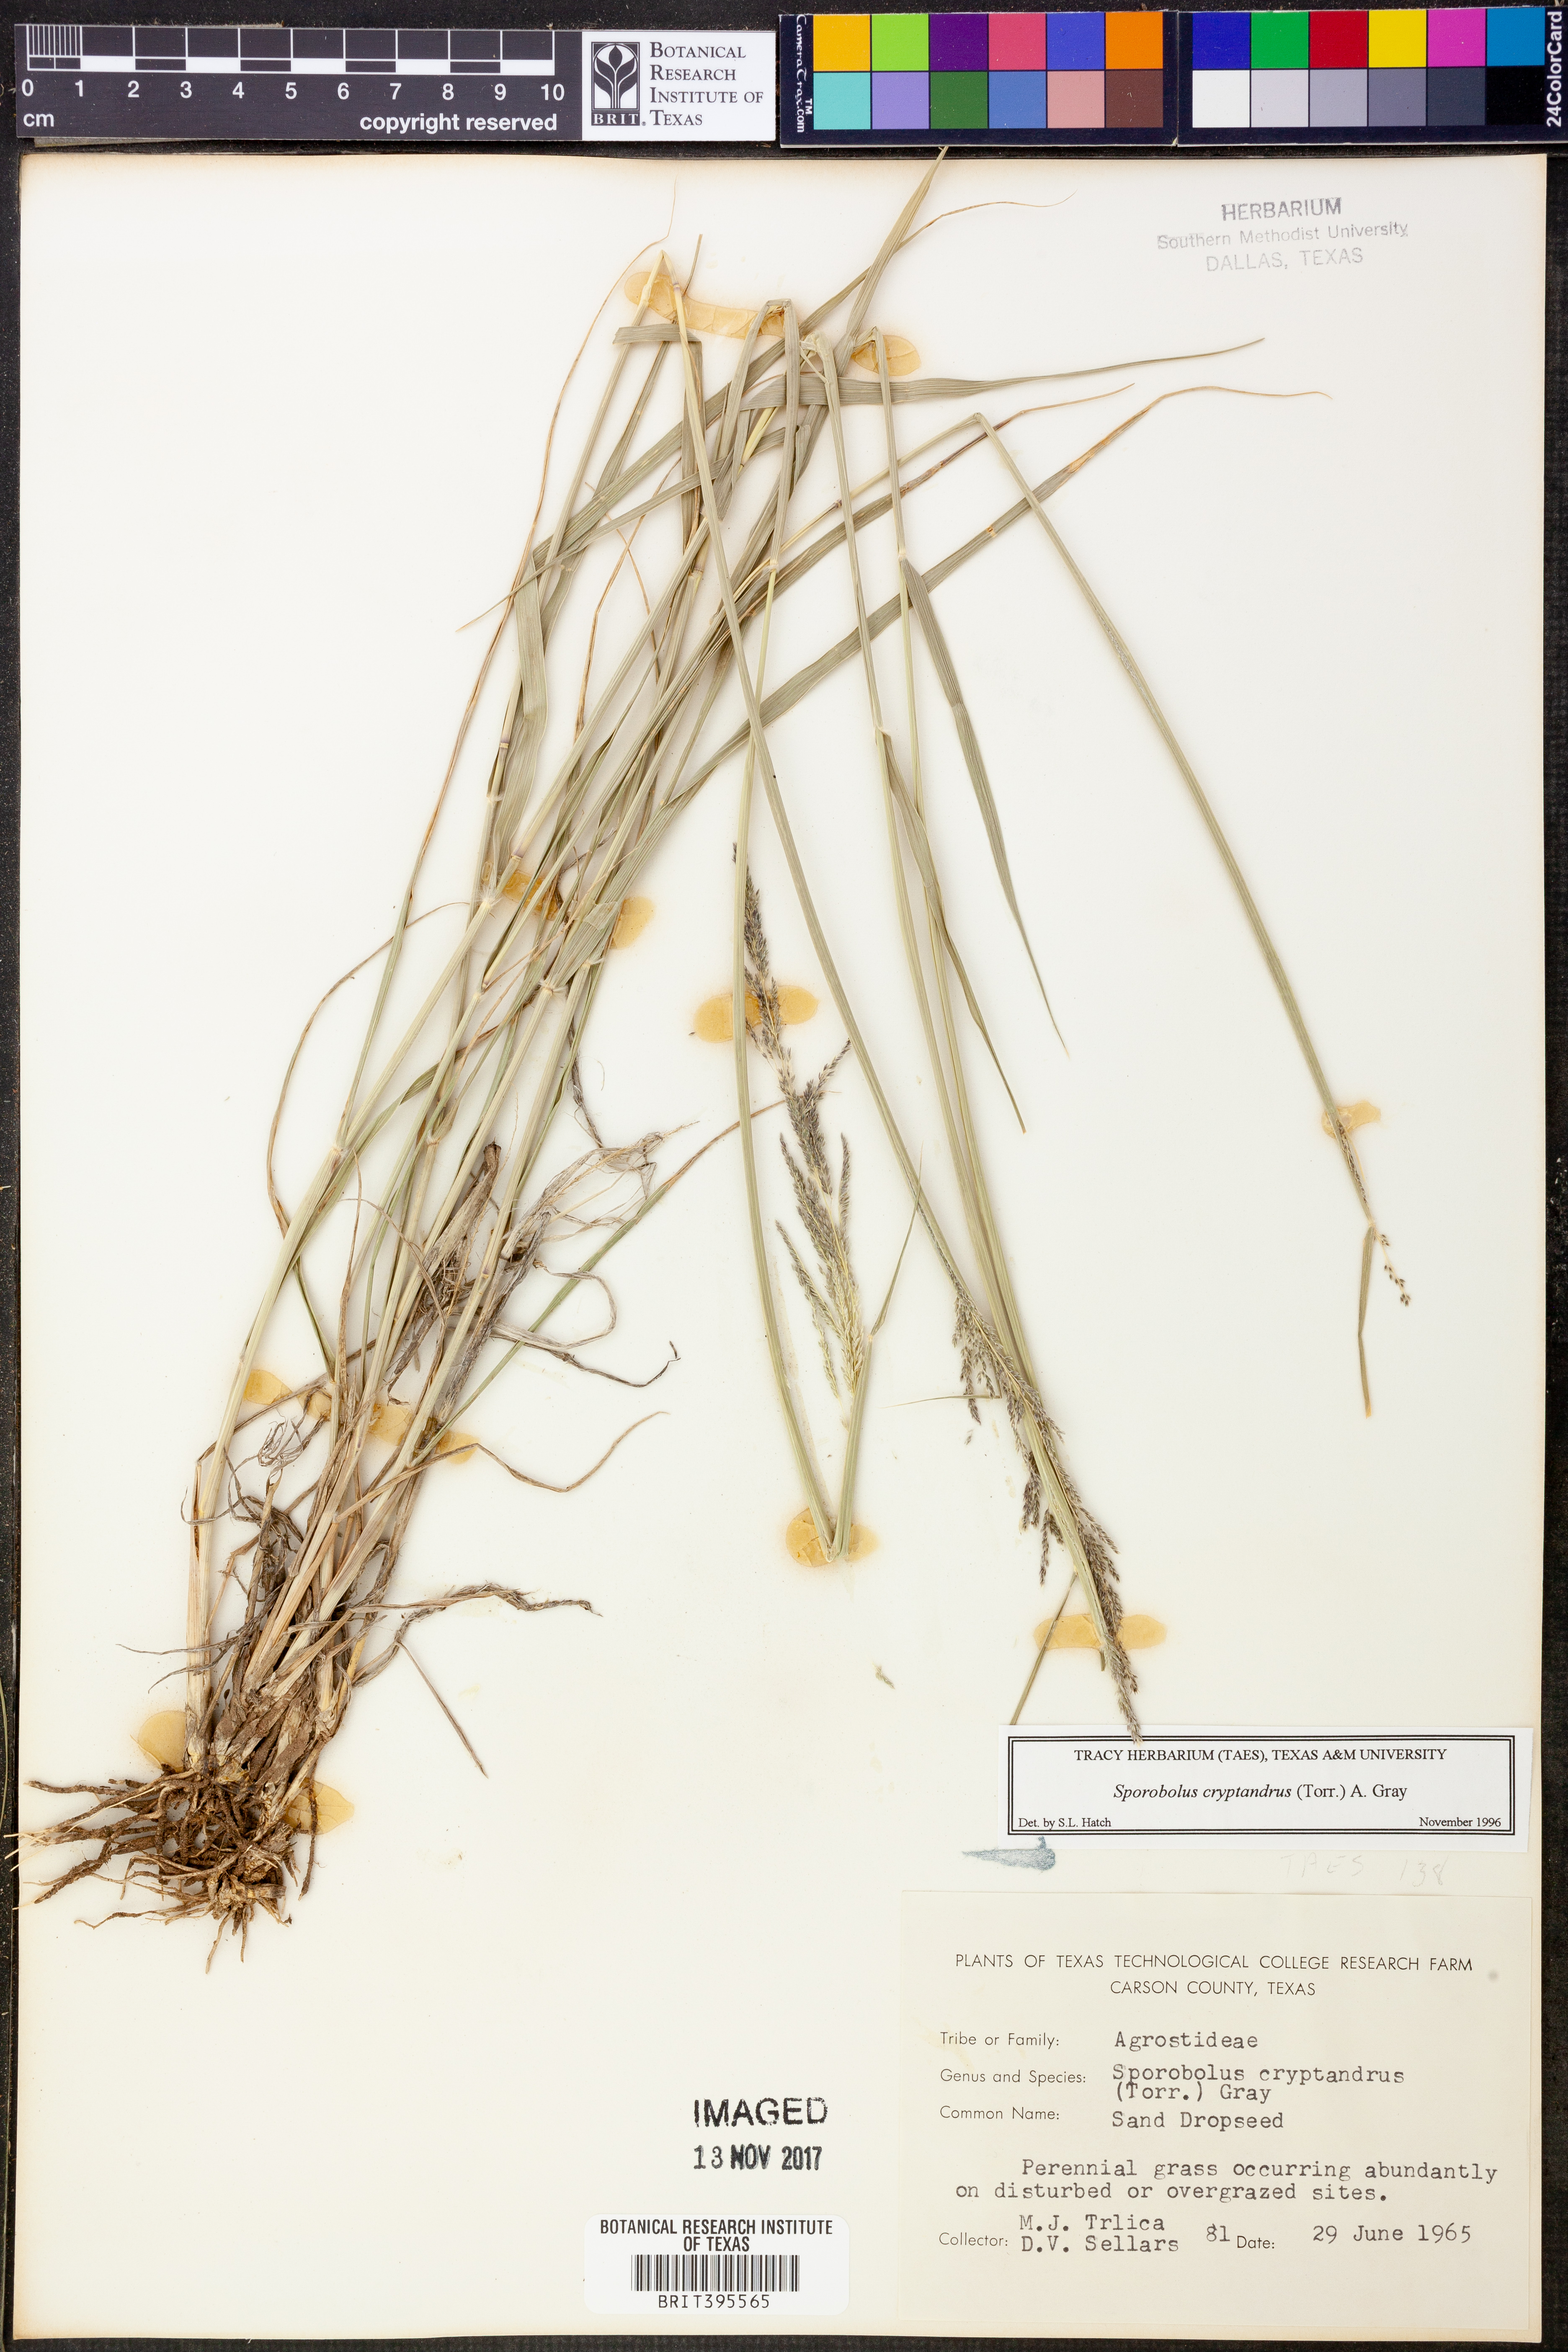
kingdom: Plantae
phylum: Tracheophyta
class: Liliopsida
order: Poales
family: Poaceae
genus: Sporobolus
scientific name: Sporobolus cryptandrus
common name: Sand dropseed
